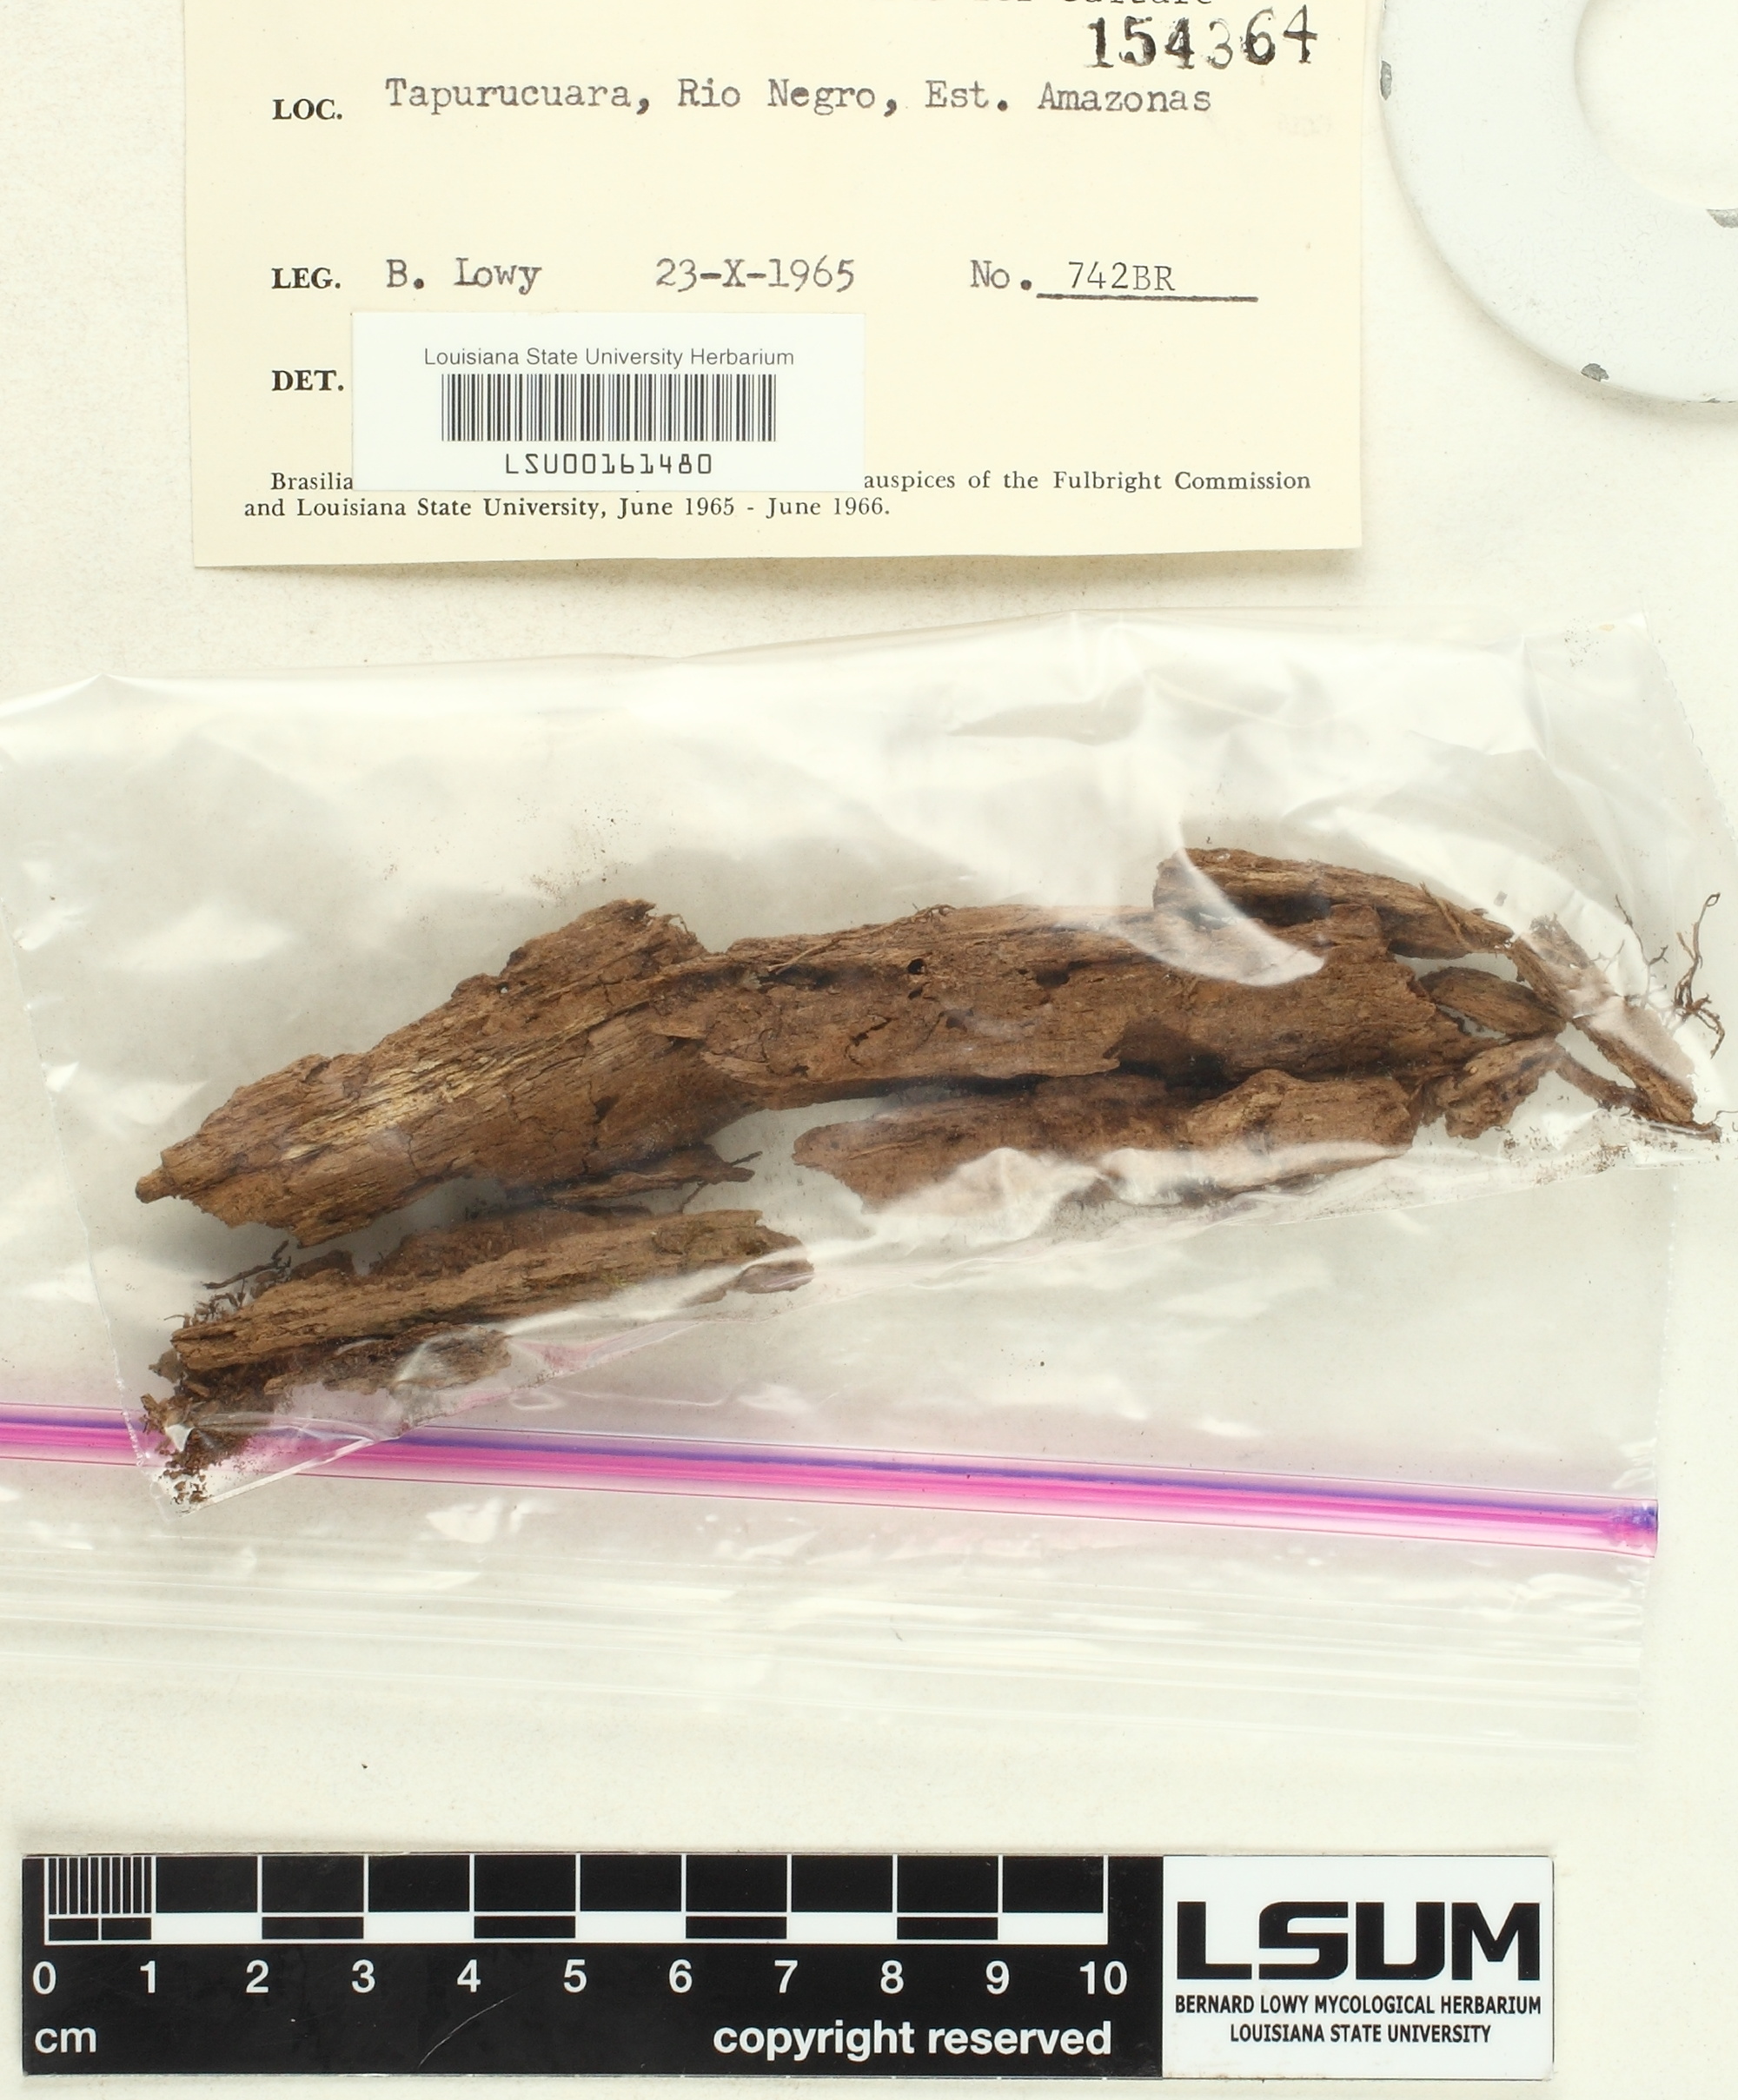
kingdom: Fungi
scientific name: Fungi
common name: Fungi
